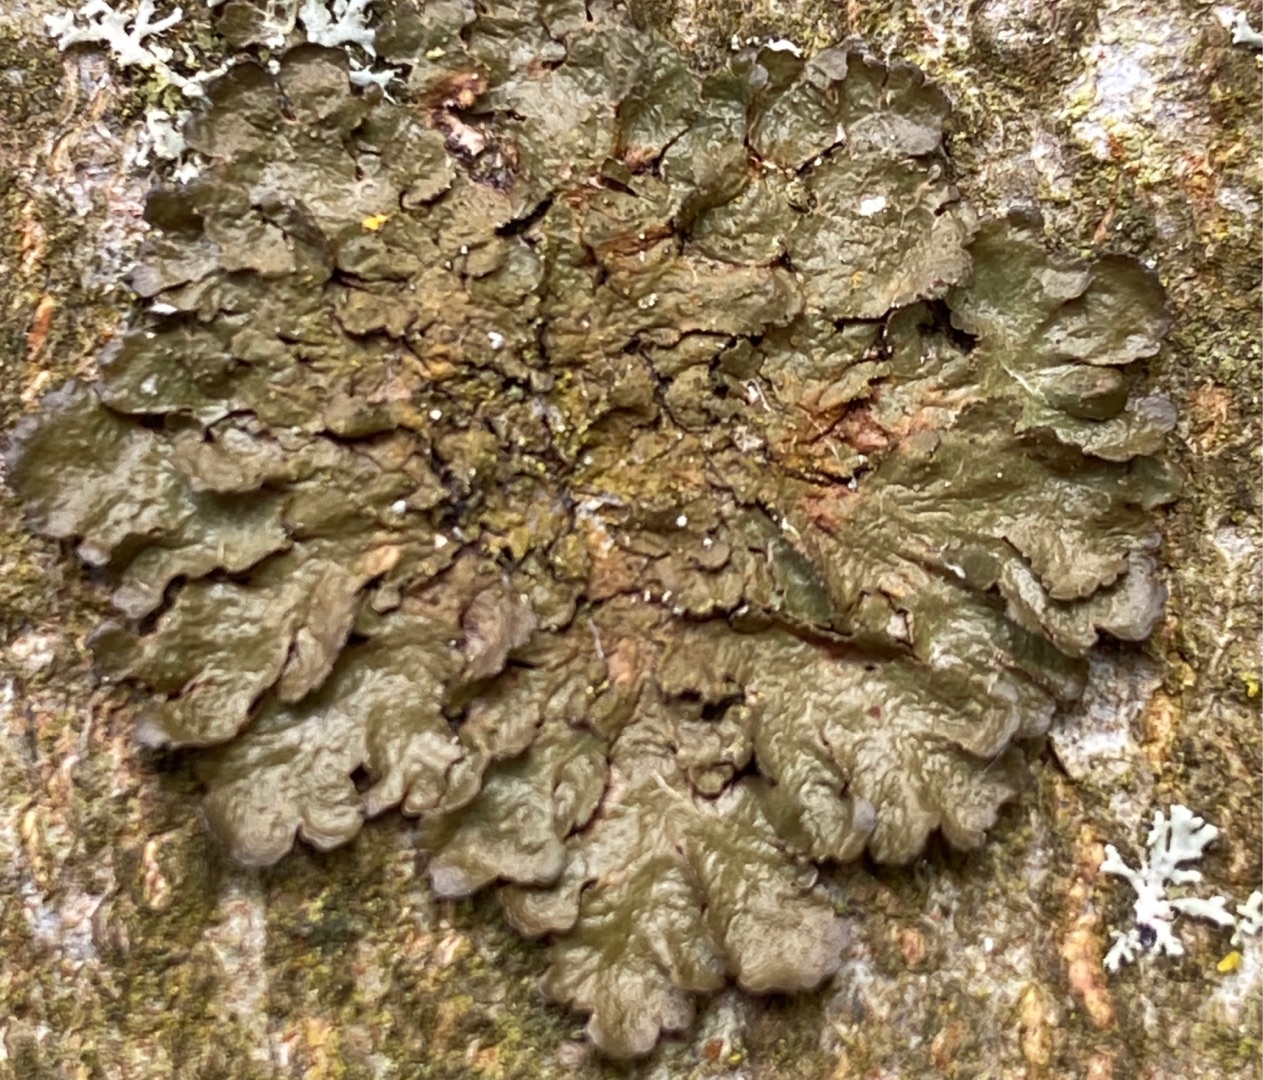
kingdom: Fungi
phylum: Ascomycota
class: Lecanoromycetes
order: Lecanorales
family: Parmeliaceae
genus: Melanelixia
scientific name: Melanelixia glabratula
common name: Glinsende skållav
